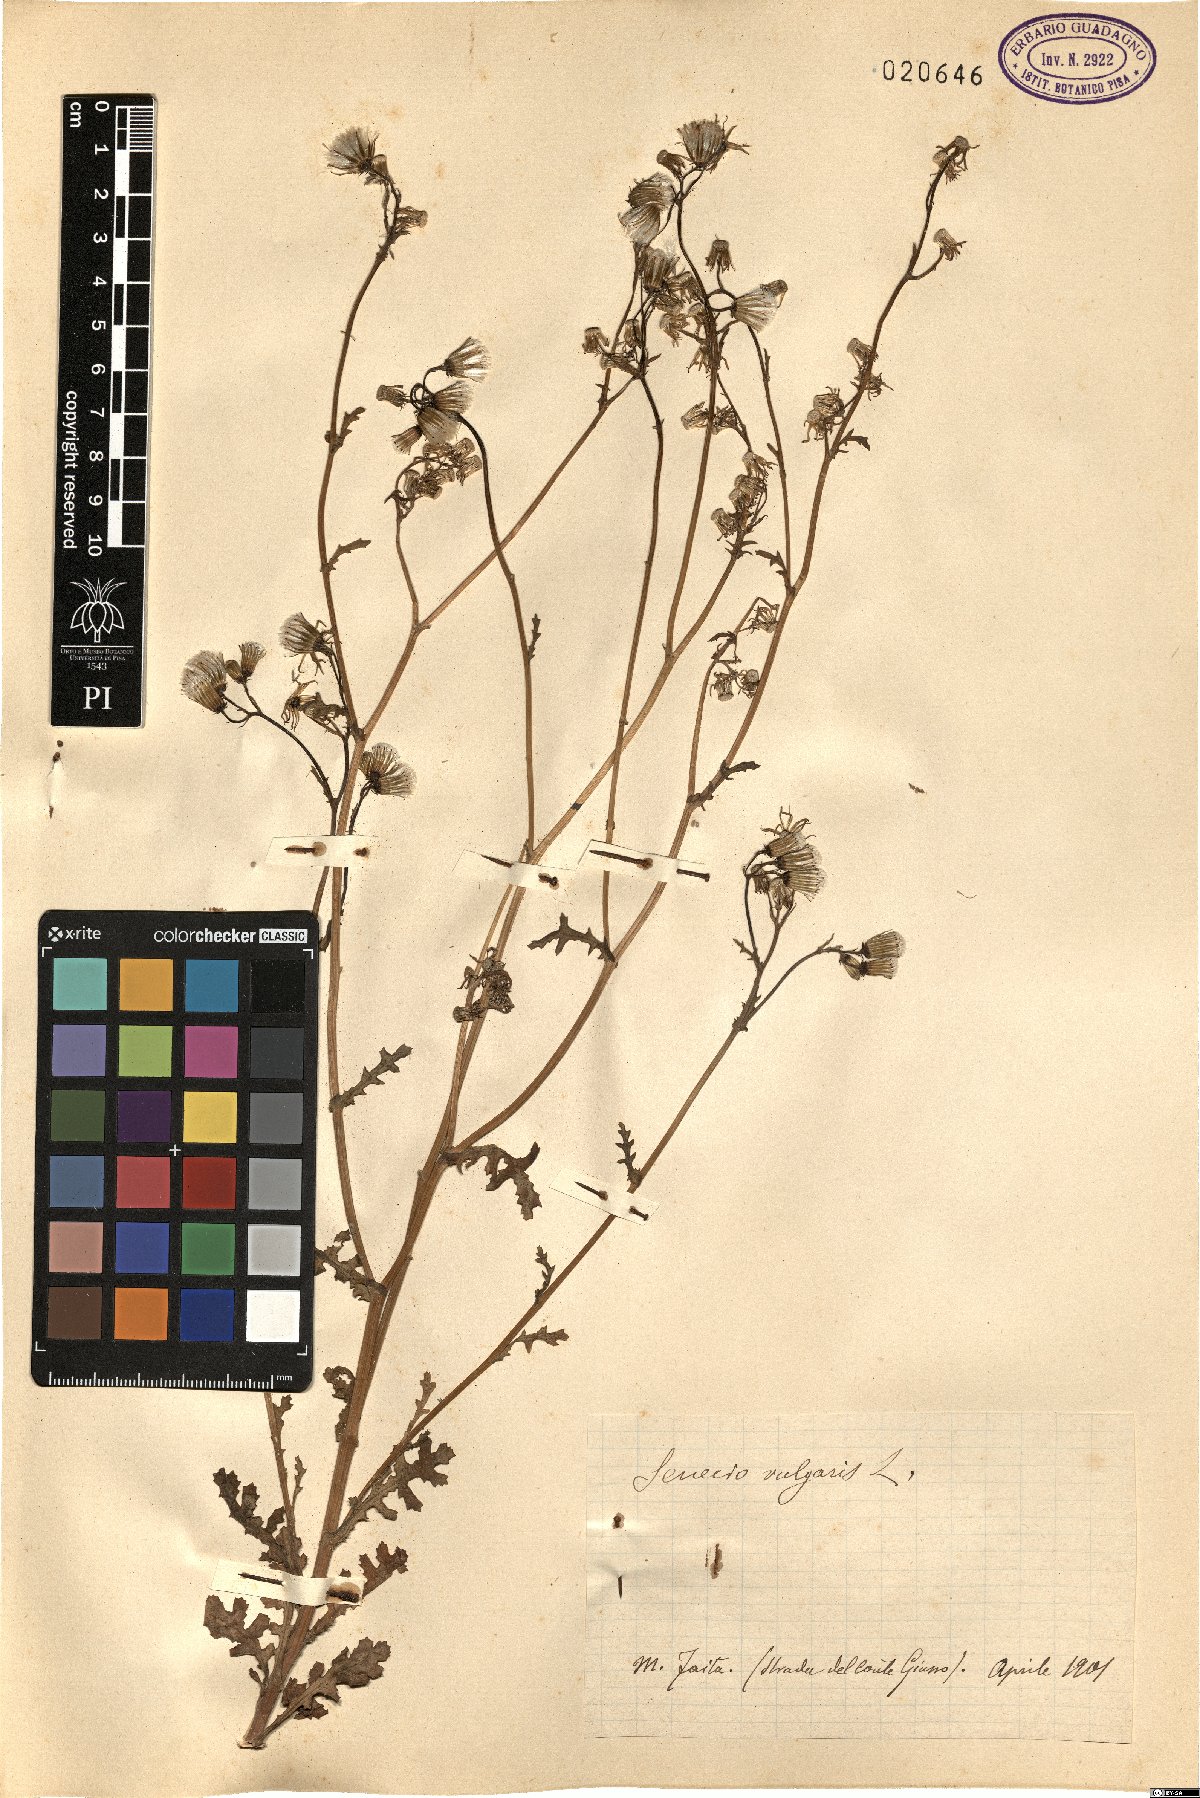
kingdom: Plantae
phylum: Tracheophyta
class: Magnoliopsida
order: Asterales
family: Asteraceae
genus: Senecio
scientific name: Senecio vulgaris
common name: Old-man-in-the-spring
